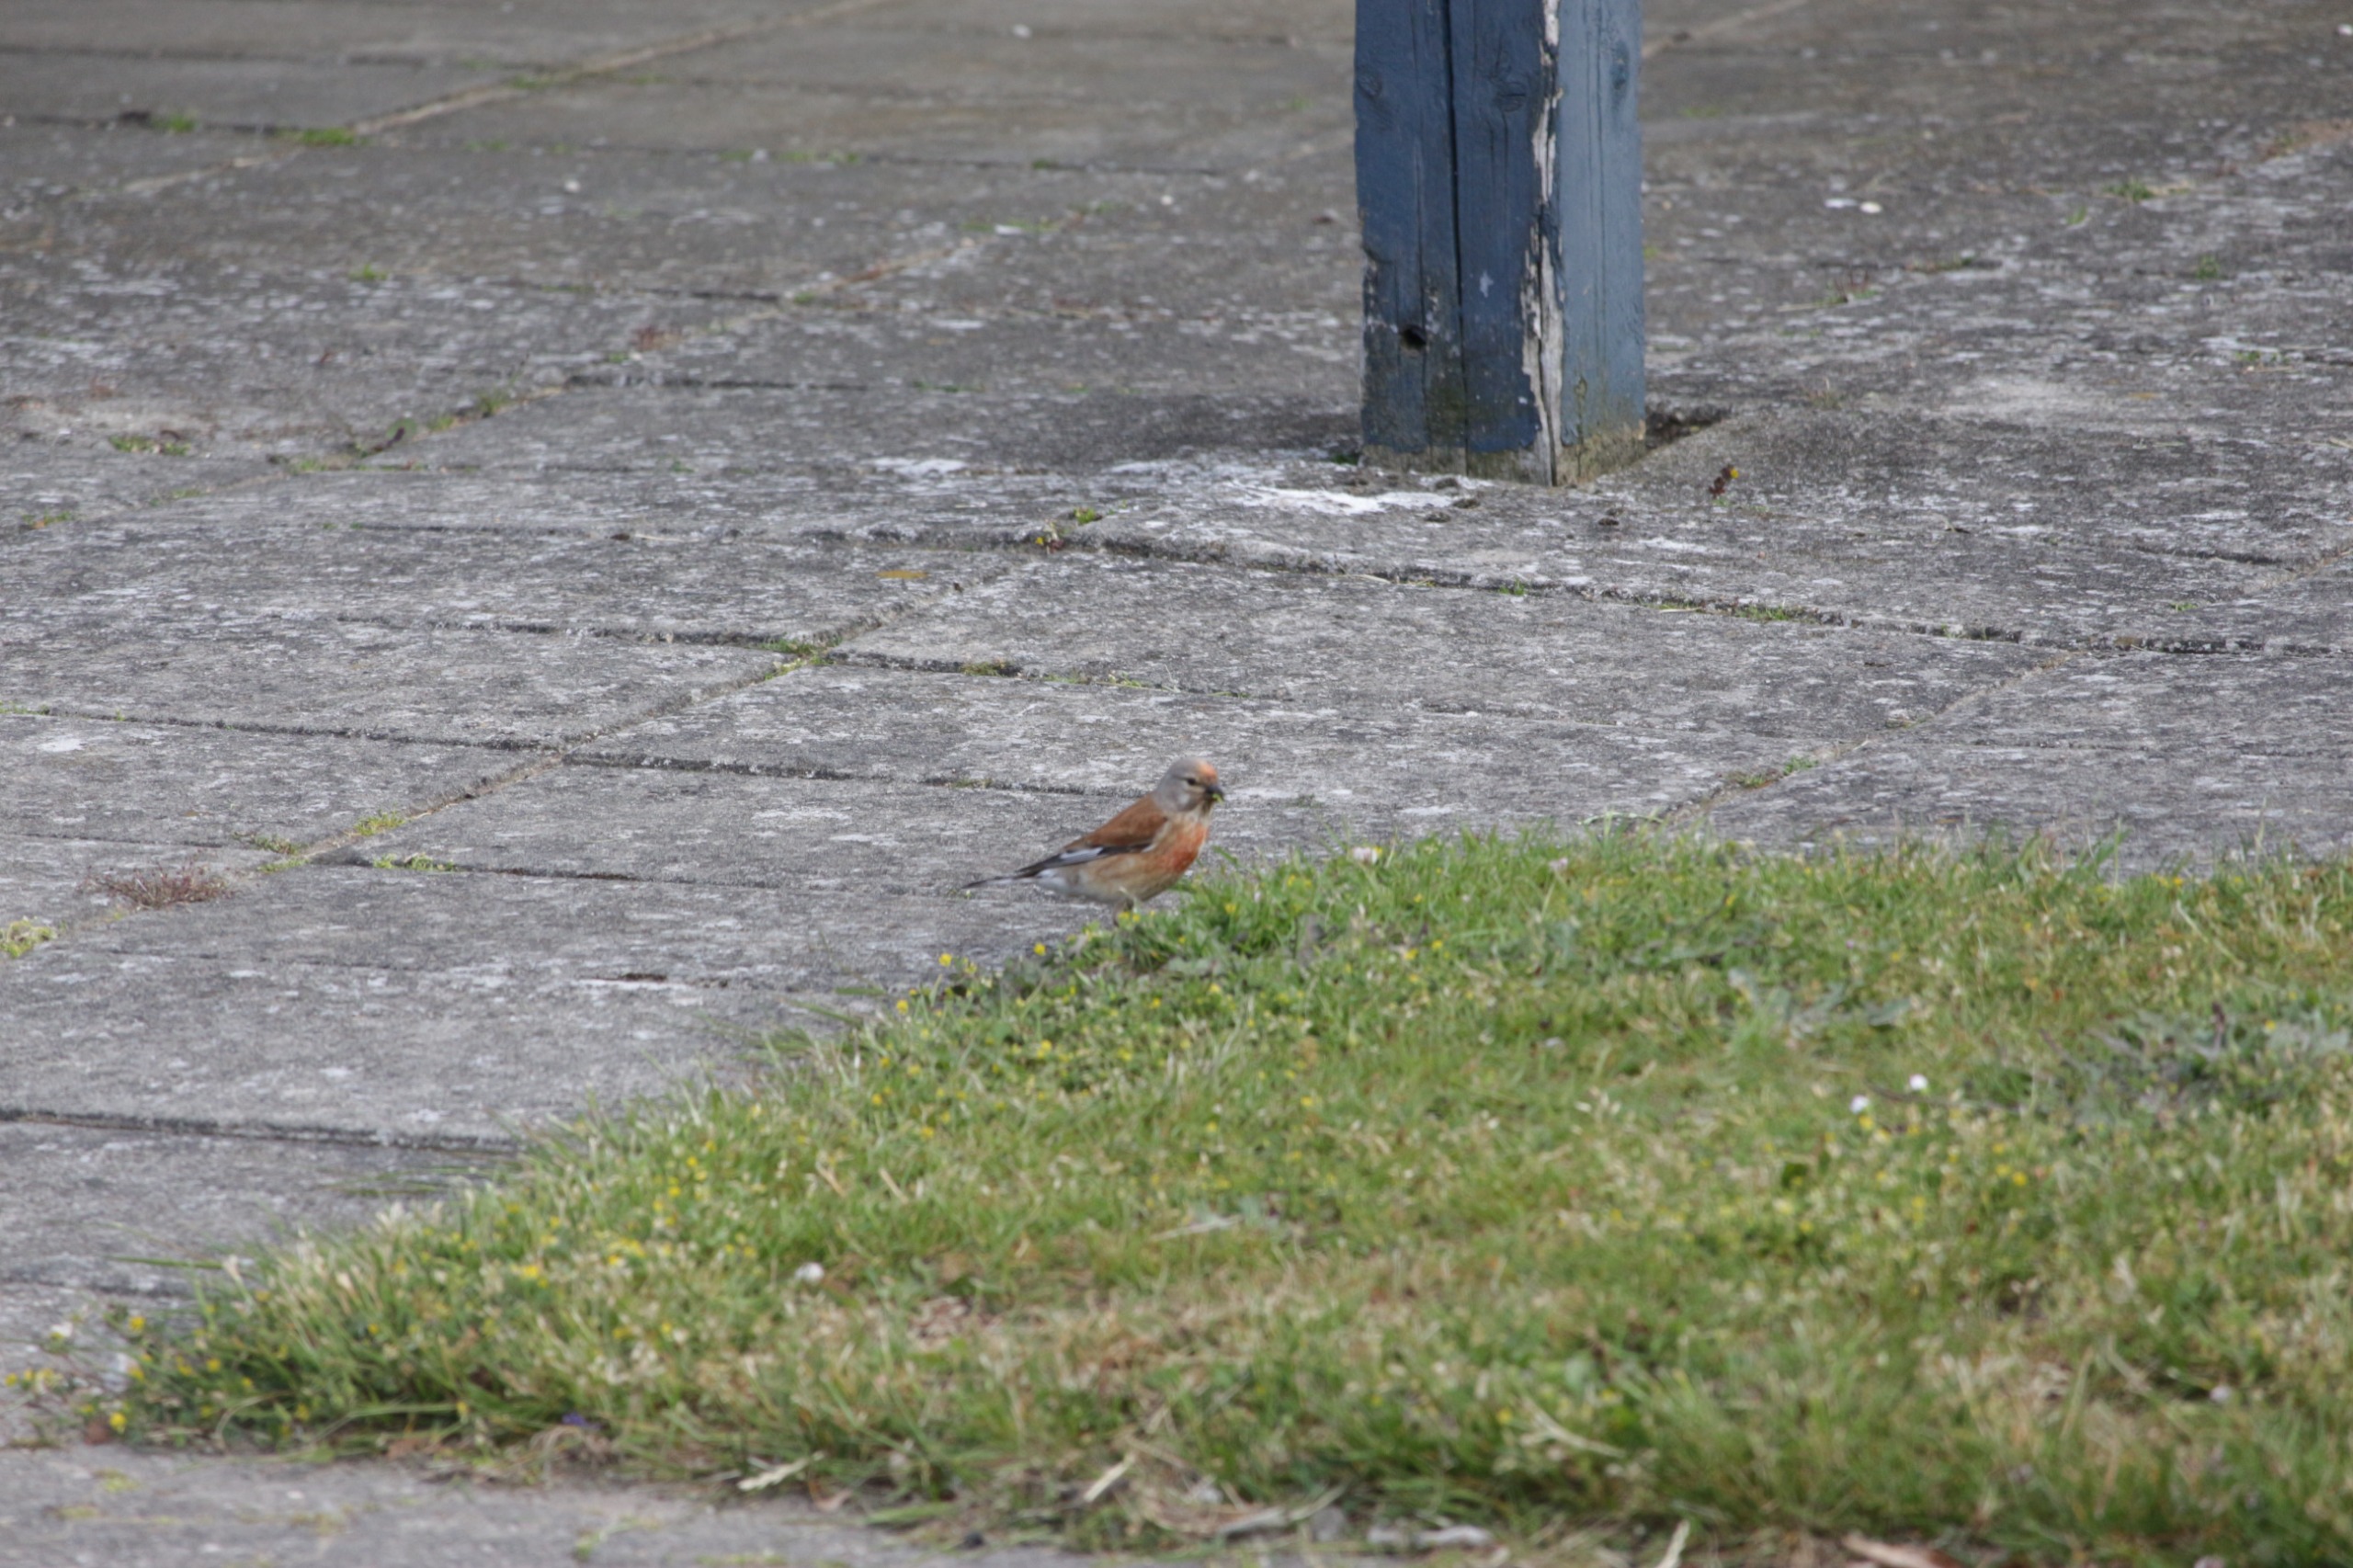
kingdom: Animalia
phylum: Chordata
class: Aves
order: Passeriformes
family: Fringillidae
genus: Linaria
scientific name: Linaria cannabina
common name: Tornirisk
